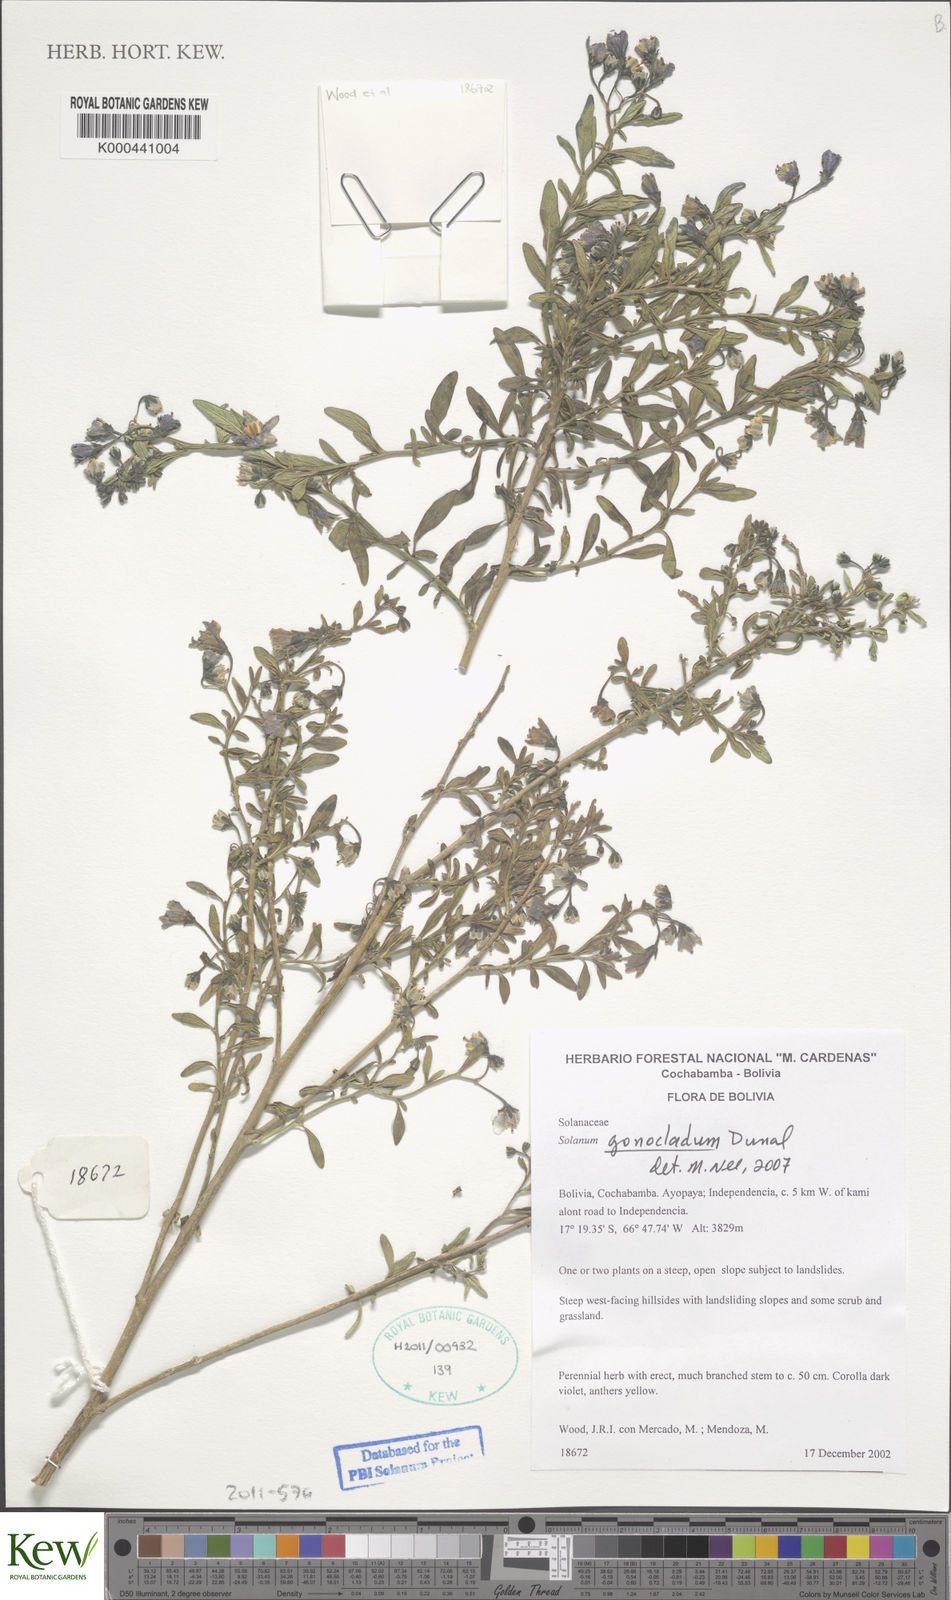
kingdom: Plantae
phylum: Tracheophyta
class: Magnoliopsida
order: Solanales
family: Solanaceae
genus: Solanum
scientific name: Solanum gonocladum
